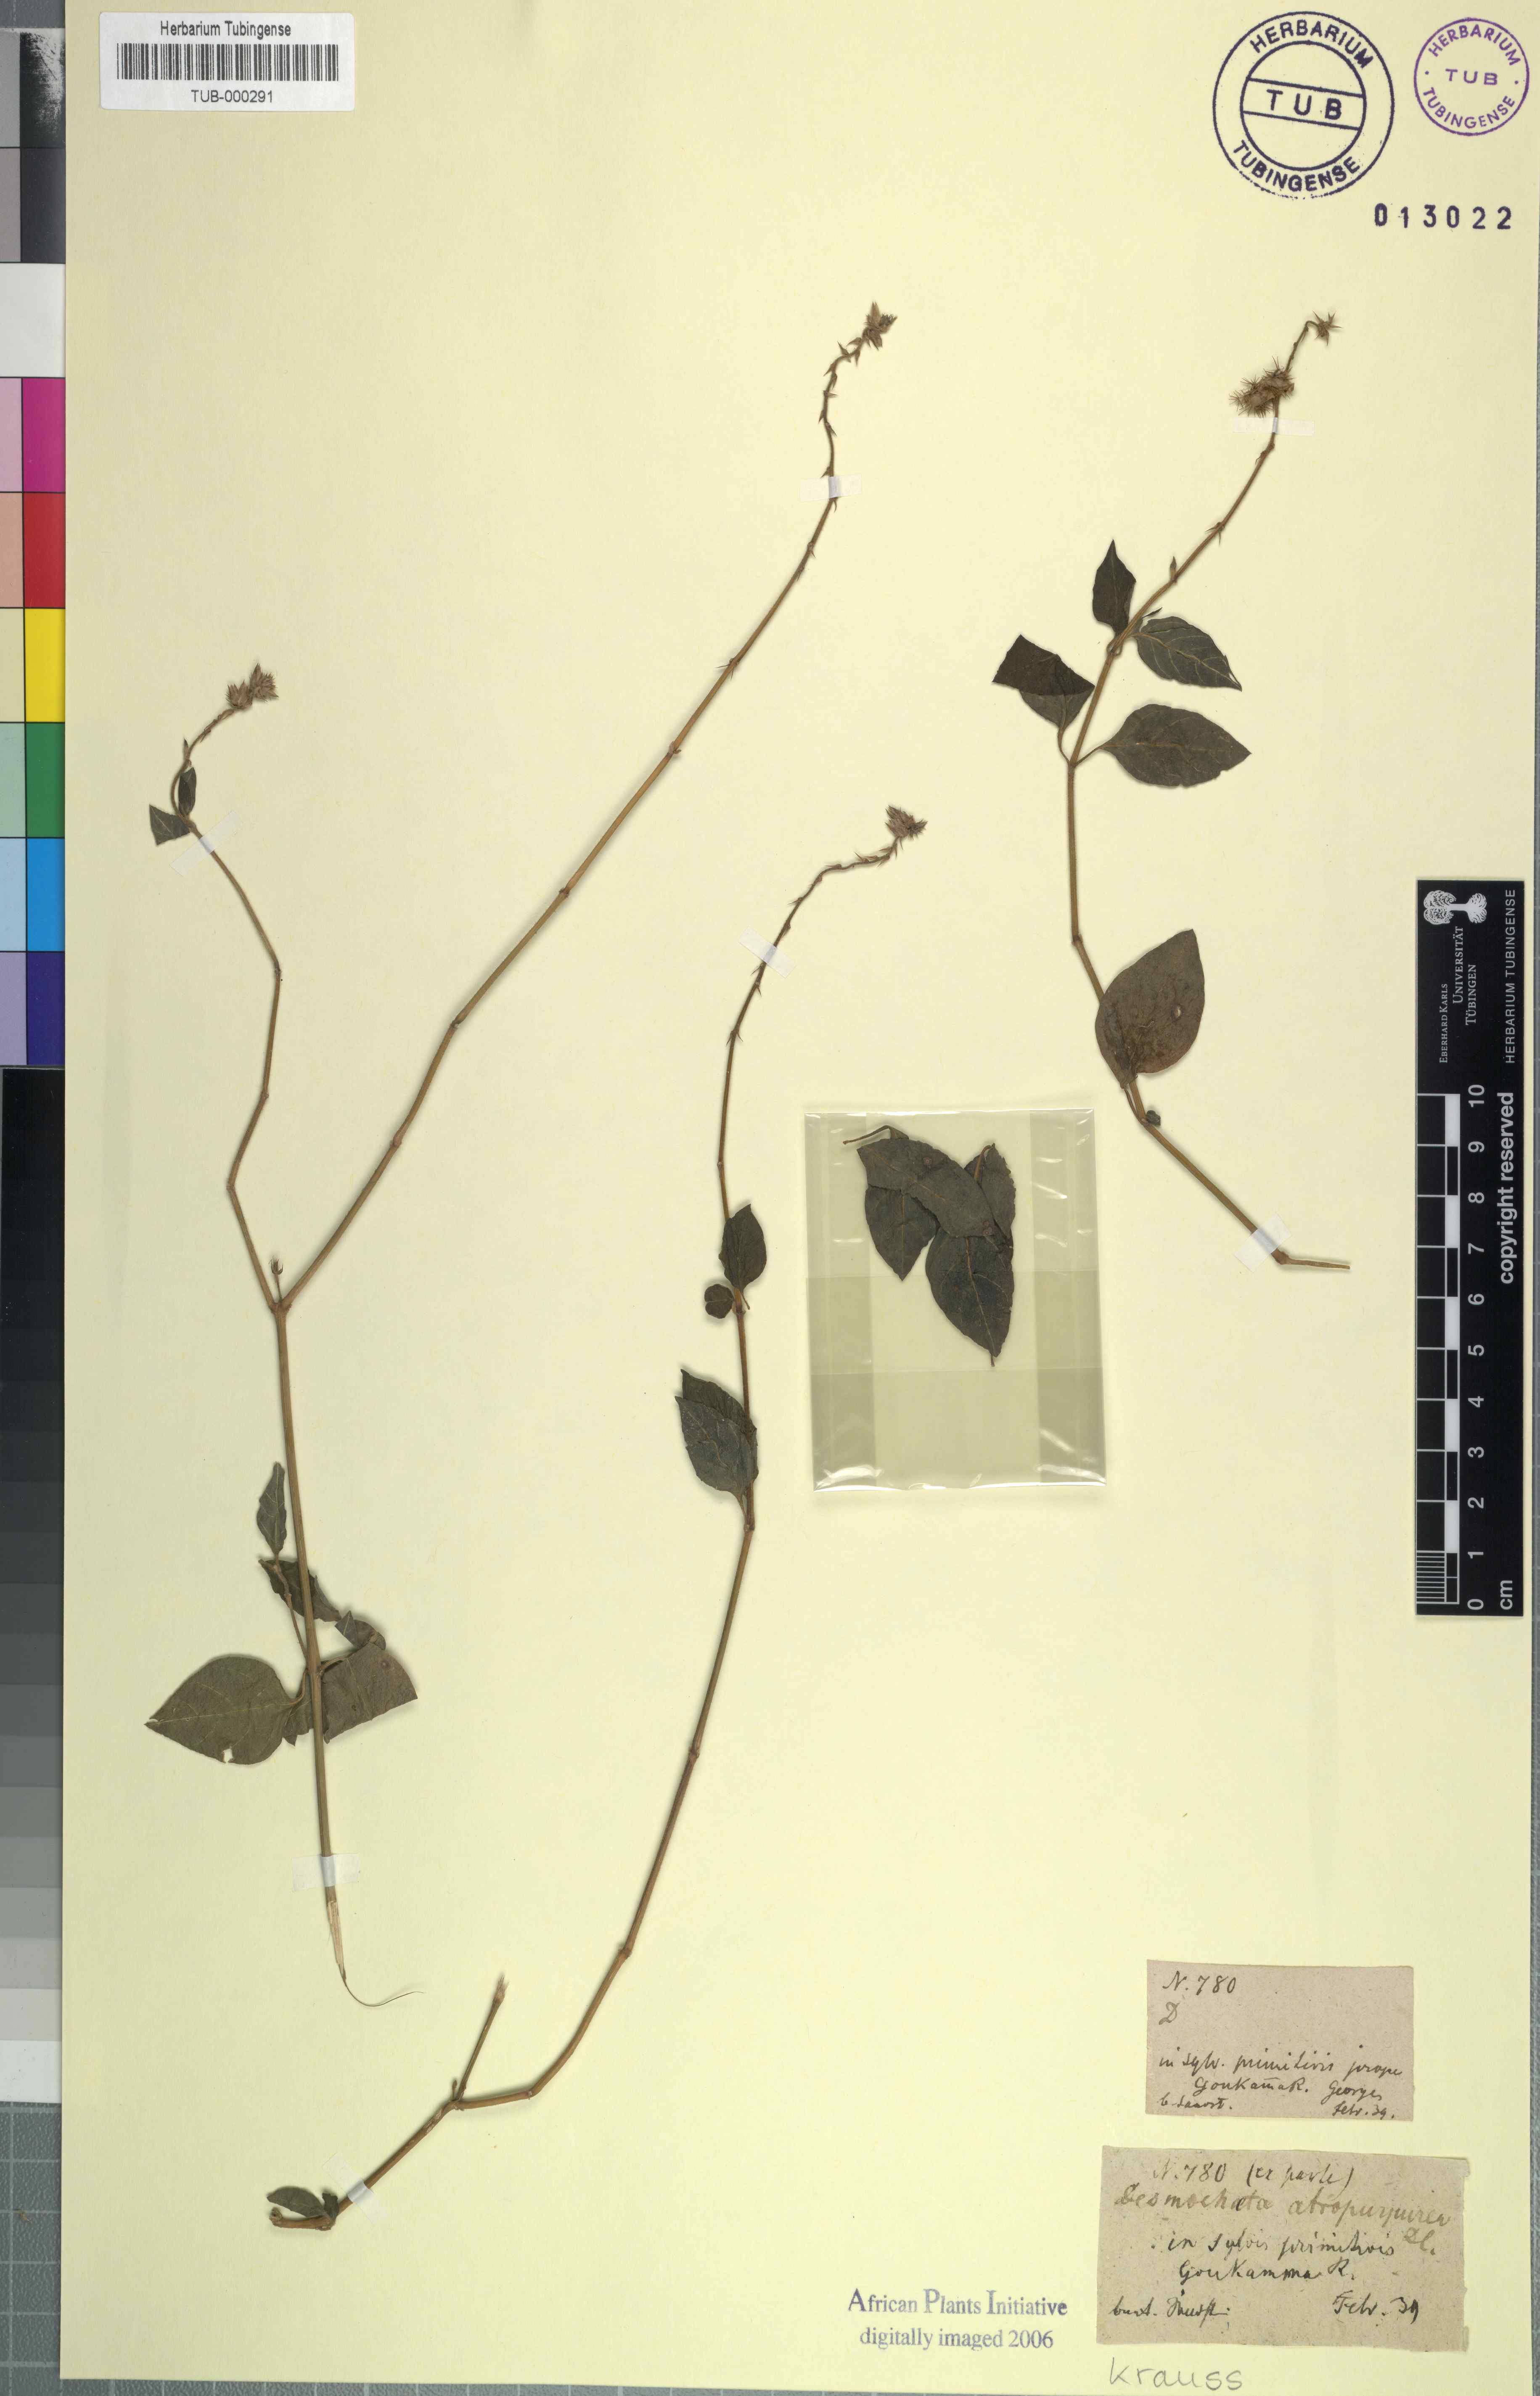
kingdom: Plantae
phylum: Tracheophyta
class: Magnoliopsida
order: Caryophyllales
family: Amaranthaceae
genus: Pupalia
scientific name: Pupalia lappacea
